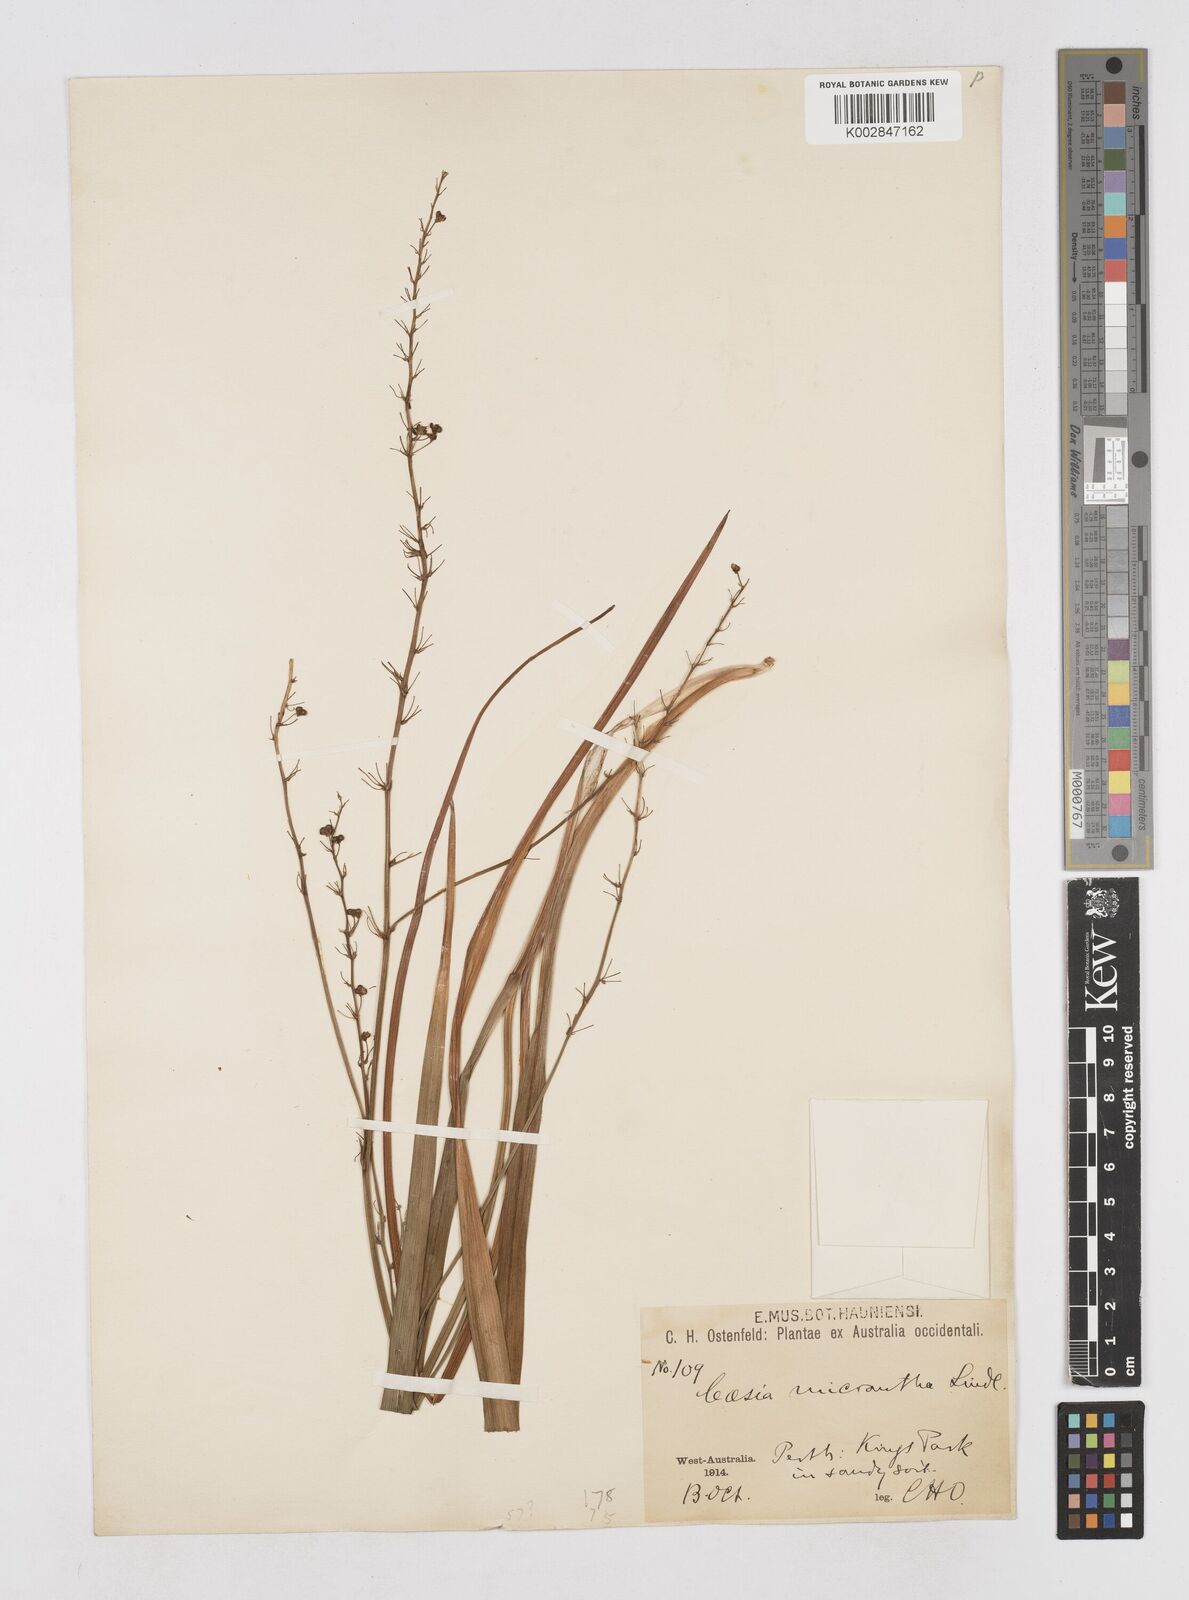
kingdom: Plantae
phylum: Tracheophyta
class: Liliopsida
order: Asparagales
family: Asphodelaceae
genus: Caesia
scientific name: Caesia micrantha
